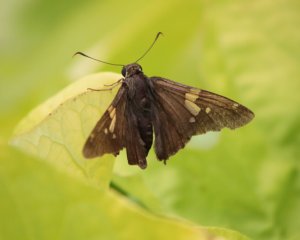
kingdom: Animalia
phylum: Arthropoda
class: Insecta
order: Lepidoptera
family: Hesperiidae
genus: Epargyreus
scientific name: Epargyreus clarus
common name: Silver-spotted Skipper
